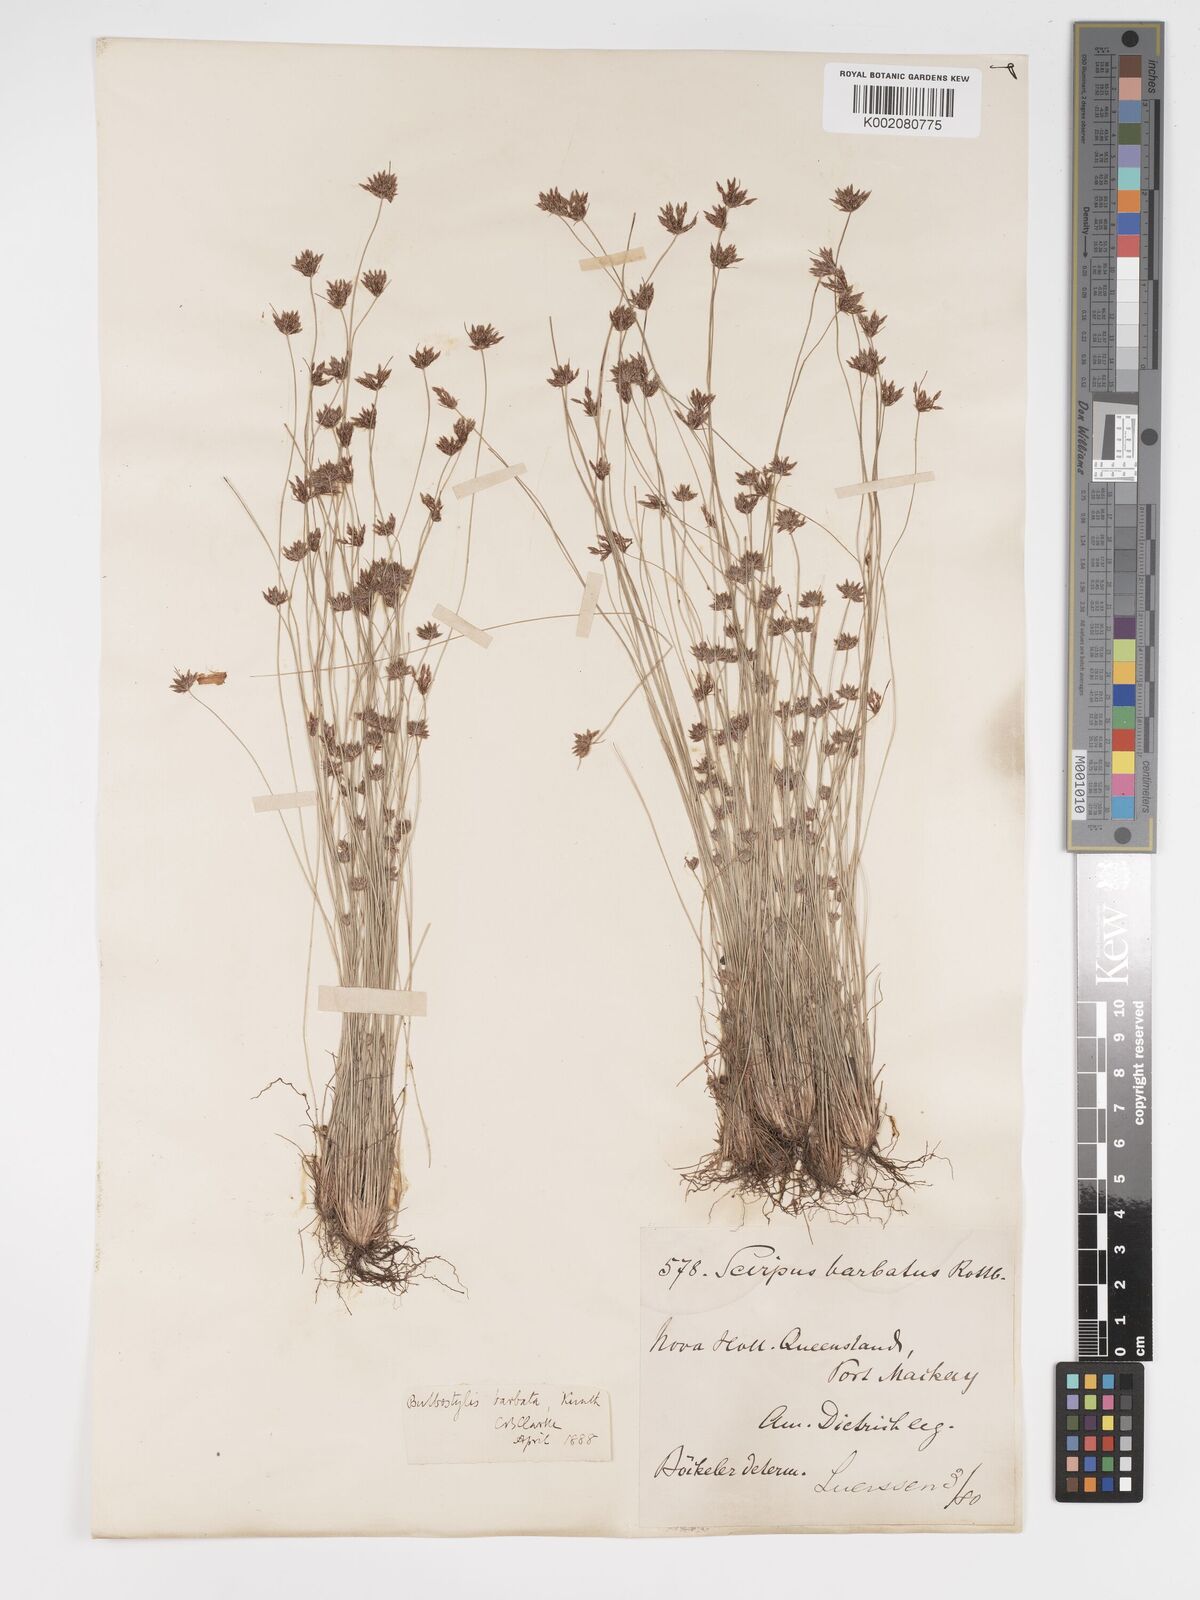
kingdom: Plantae
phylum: Tracheophyta
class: Liliopsida
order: Poales
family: Cyperaceae
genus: Bulbostylis
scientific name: Bulbostylis barbata
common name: Watergrass
